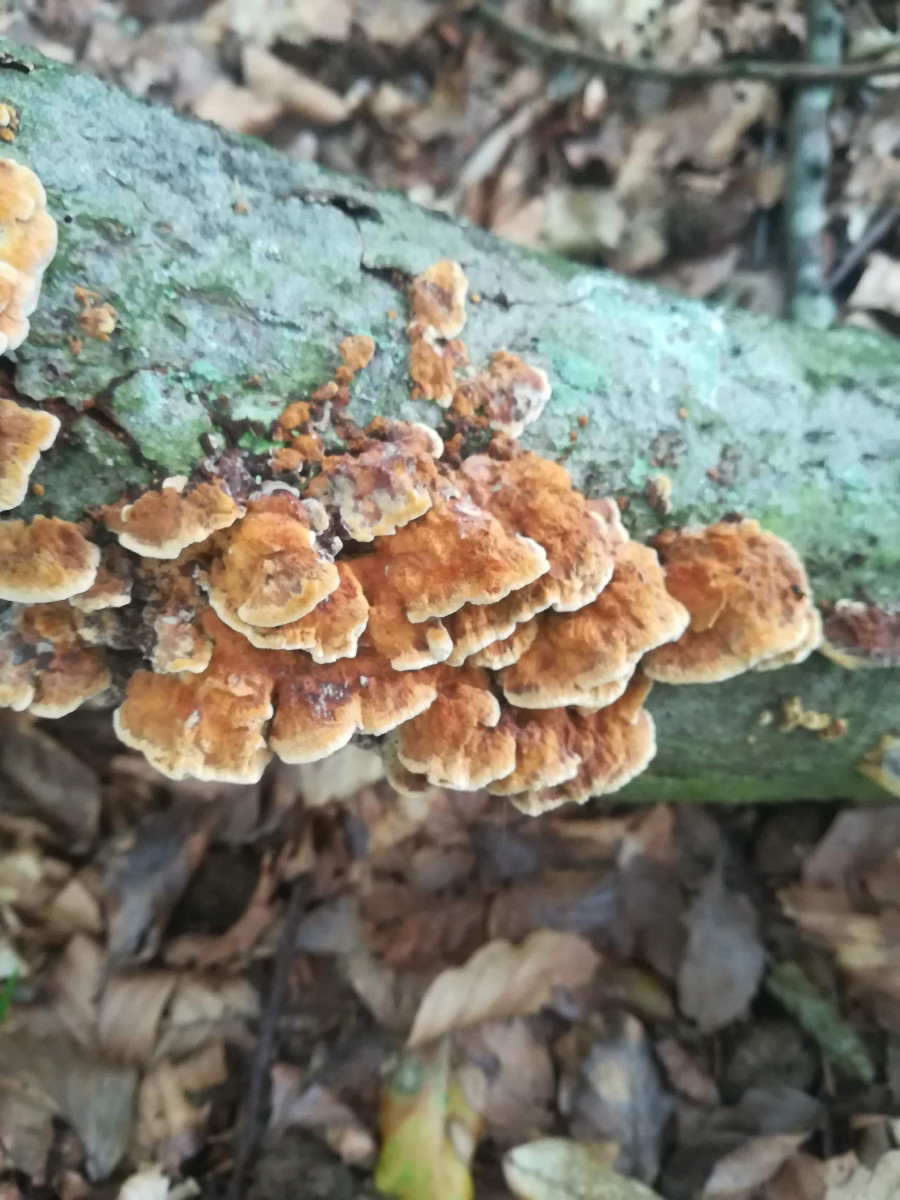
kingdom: Fungi
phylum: Basidiomycota
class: Agaricomycetes
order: Hymenochaetales
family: Hymenochaetaceae
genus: Mensularia
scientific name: Mensularia nodulosa
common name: bøge-spejlporesvamp
